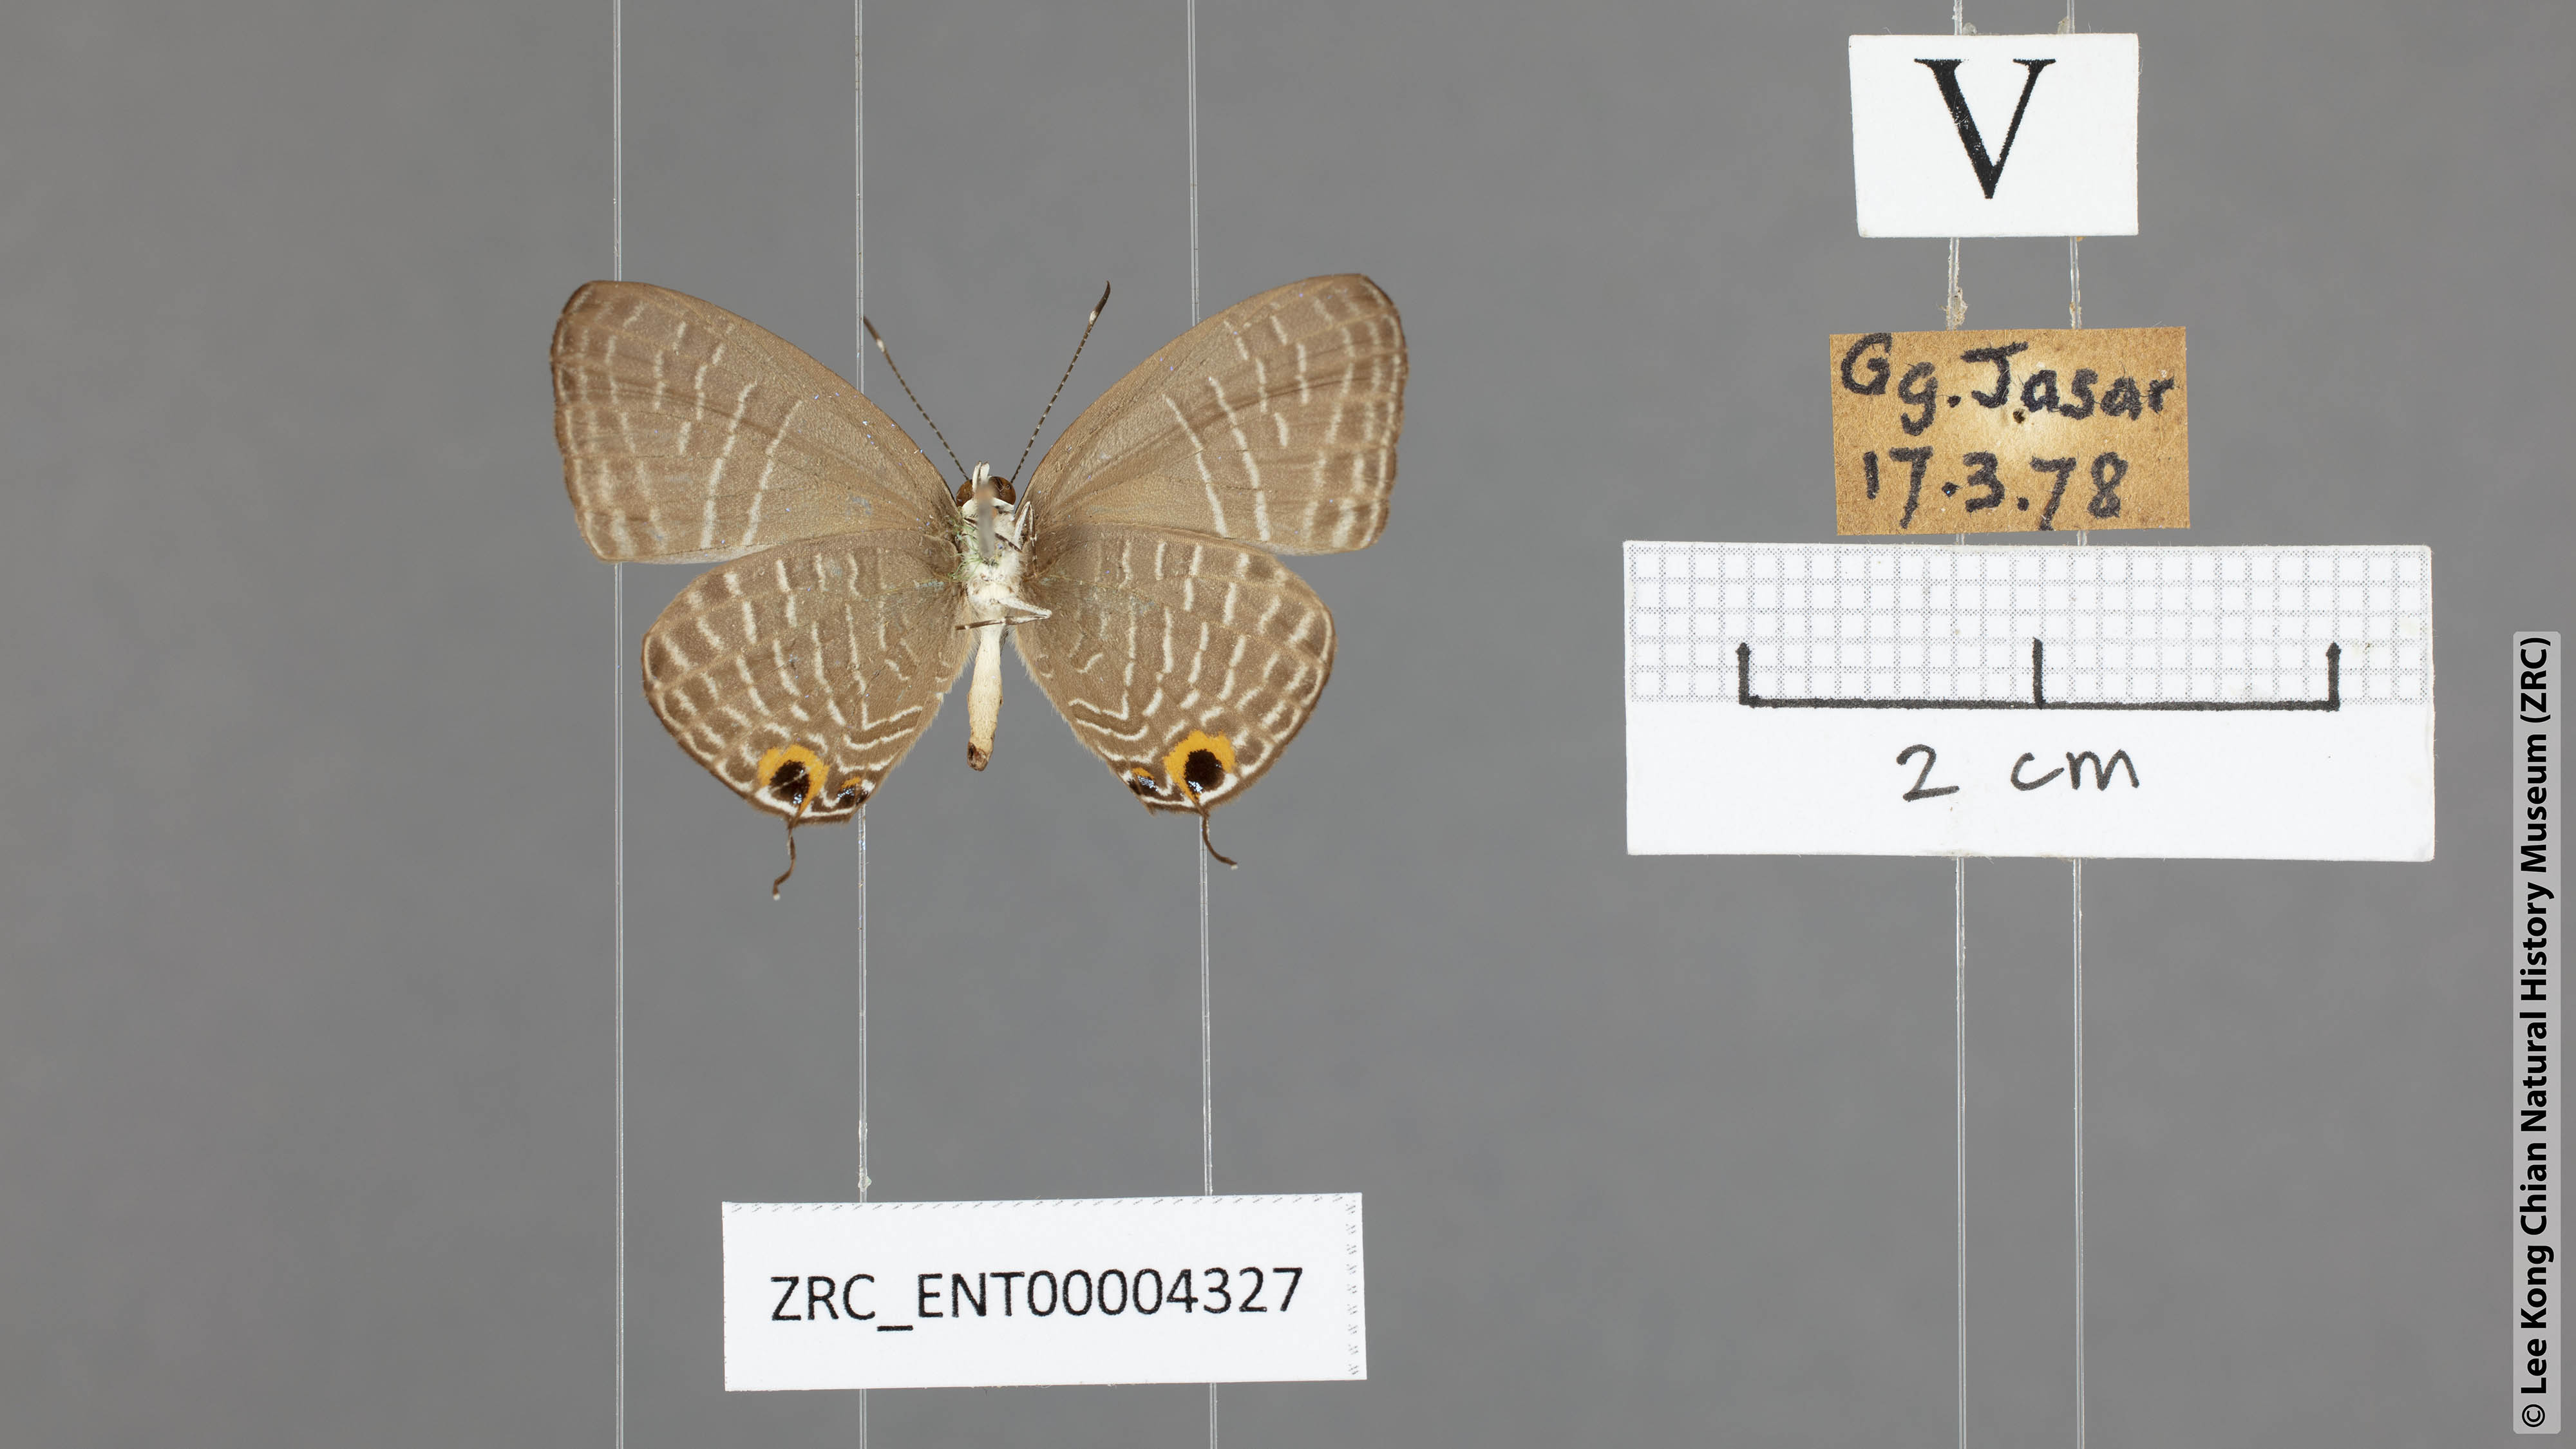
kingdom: Animalia
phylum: Arthropoda
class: Insecta
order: Lepidoptera
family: Lycaenidae
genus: Jamides
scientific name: Jamides caerulea
